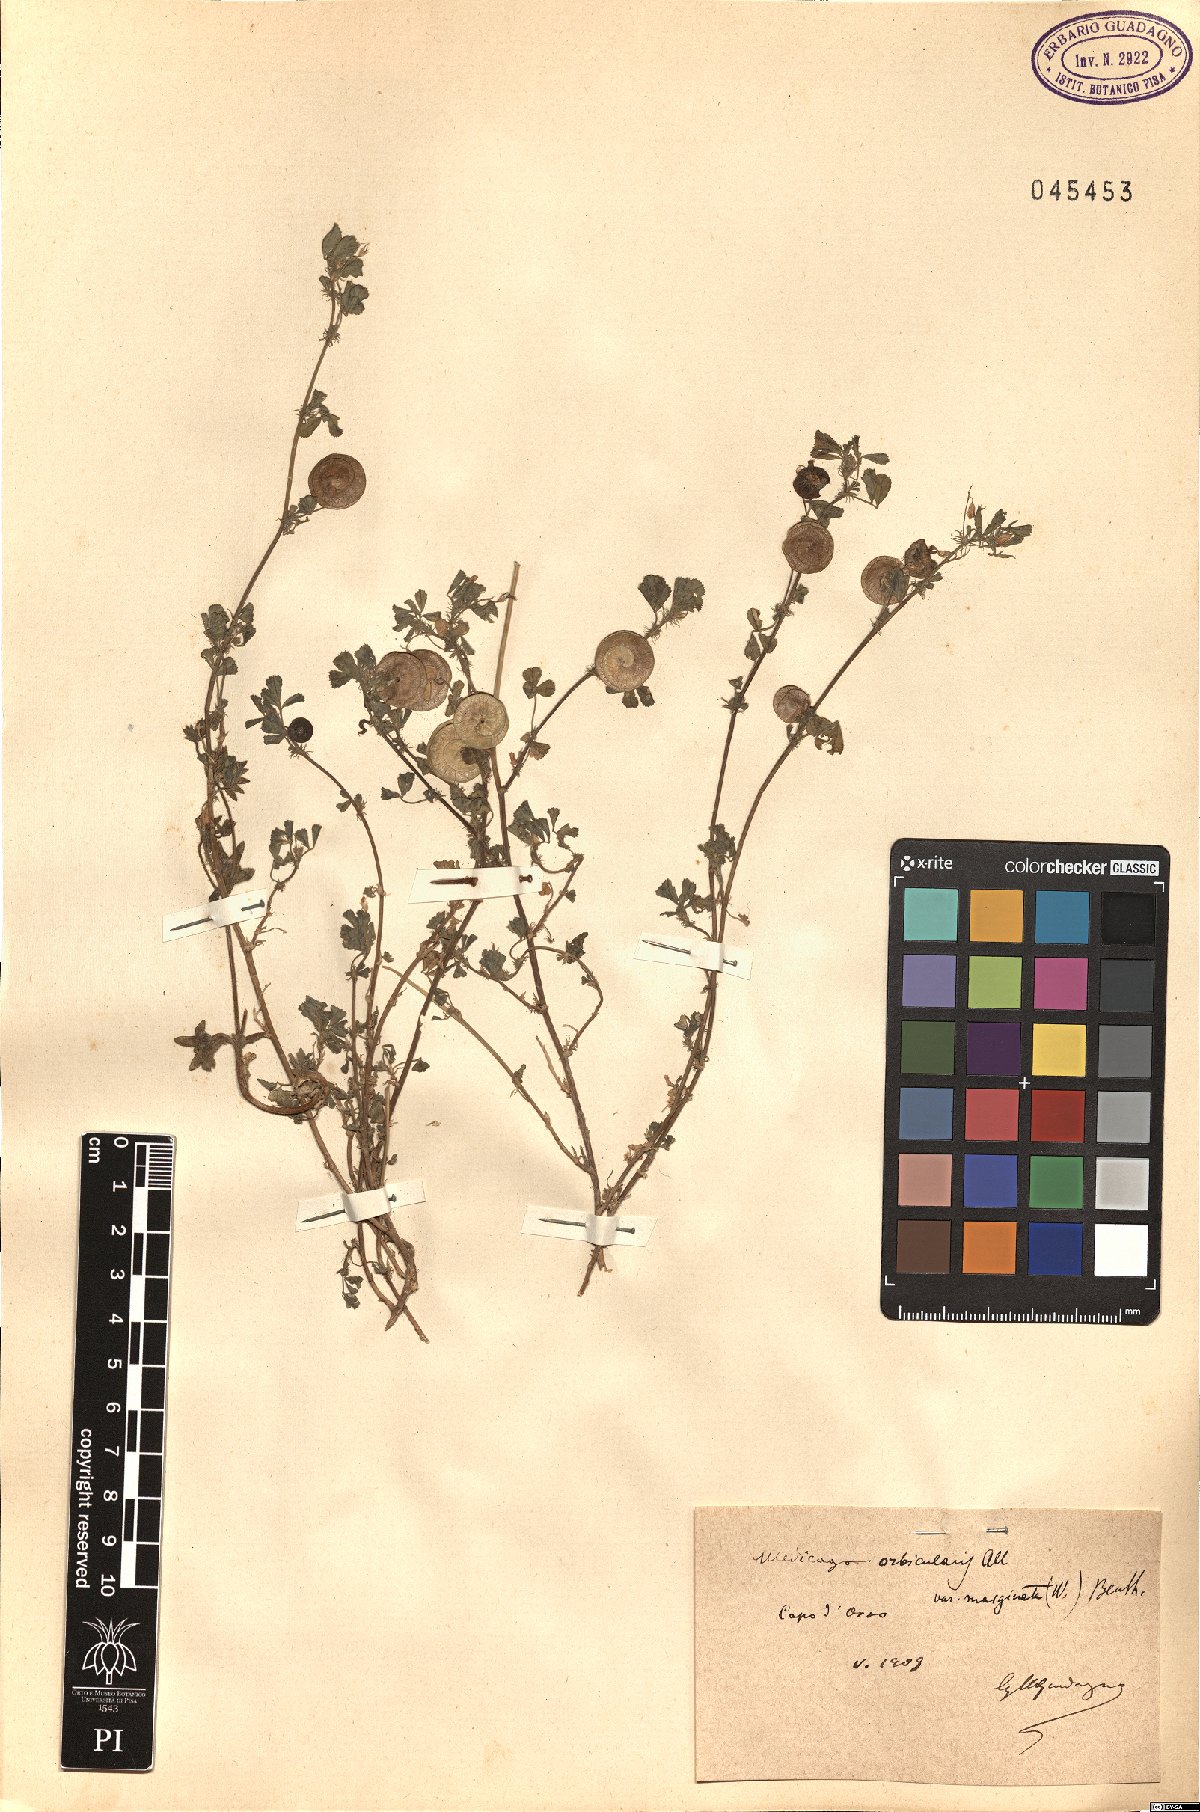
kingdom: Plantae
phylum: Tracheophyta
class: Magnoliopsida
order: Fabales
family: Fabaceae
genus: Medicago
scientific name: Medicago orbicularis
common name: Button medick
